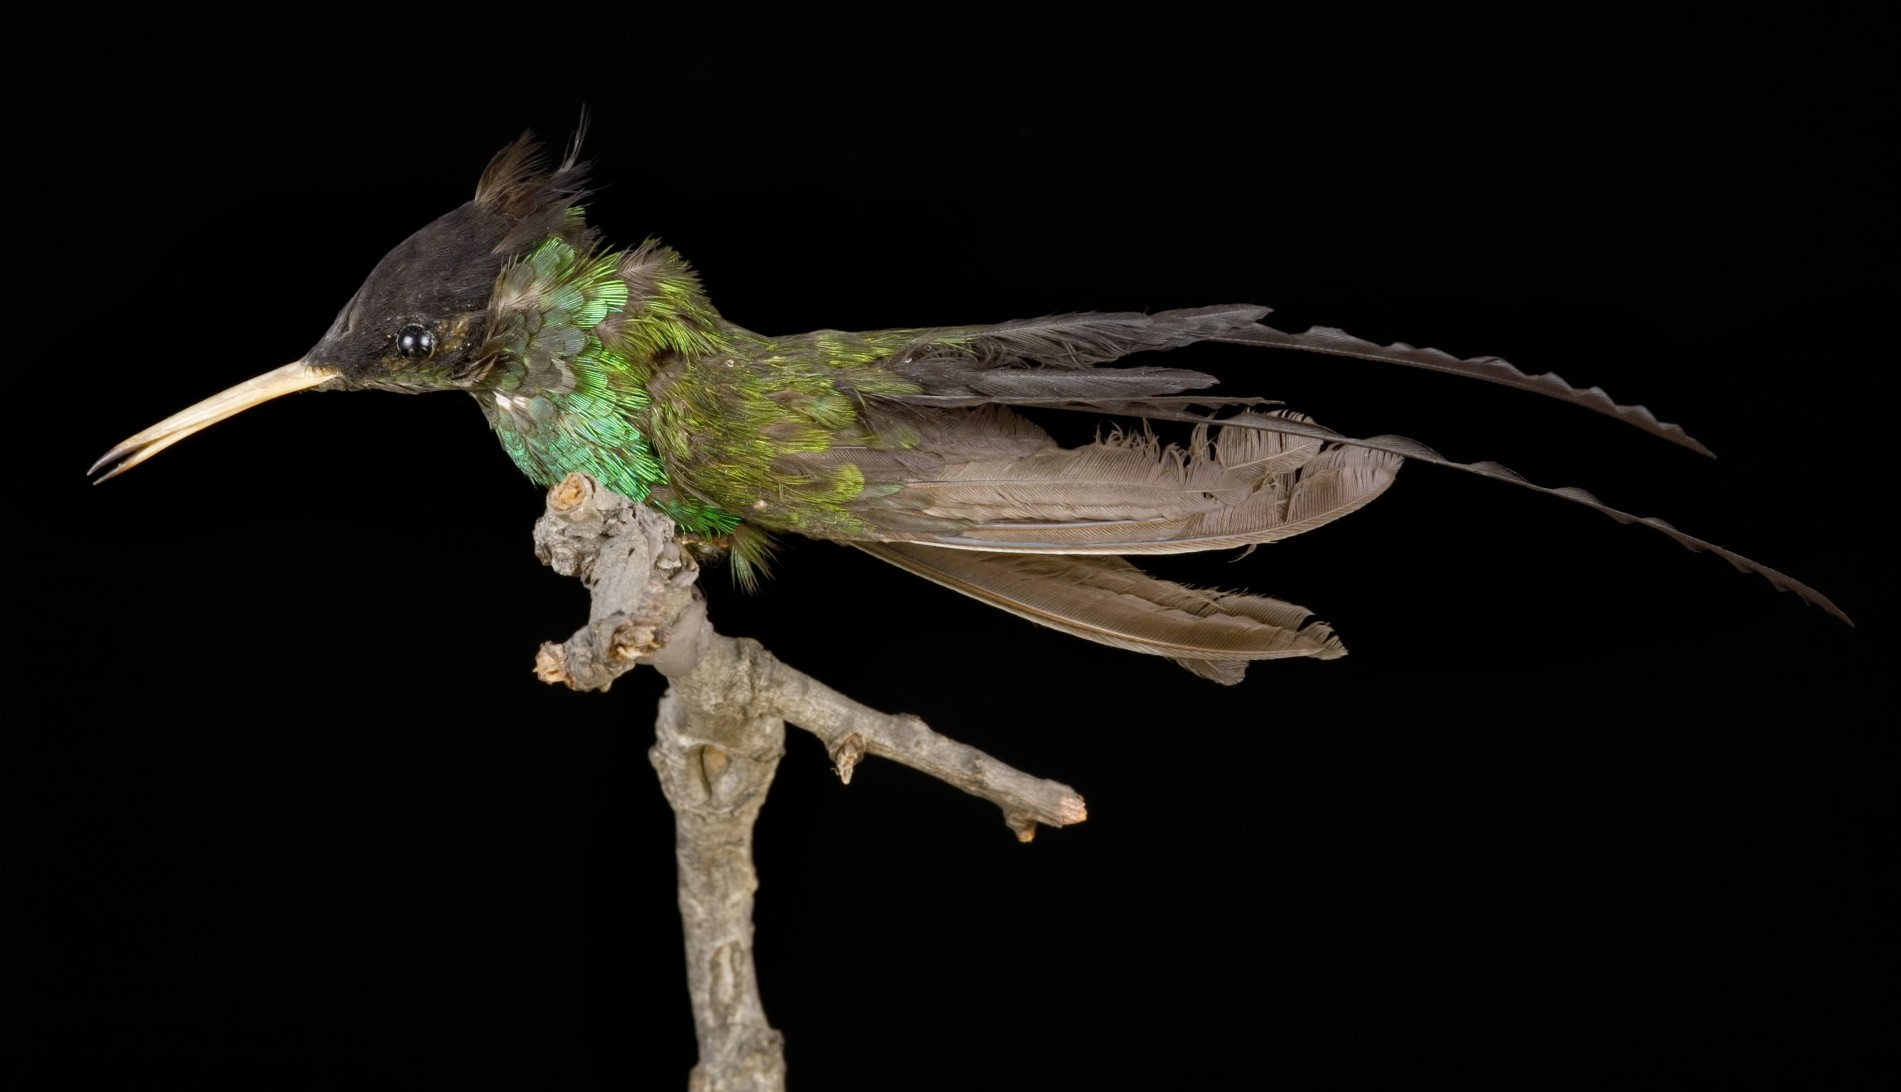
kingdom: Animalia
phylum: Chordata
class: Aves
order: Apodiformes
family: Trochilidae
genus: Trochilus
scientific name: Trochilus polytmus
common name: Red-billed streamertail
